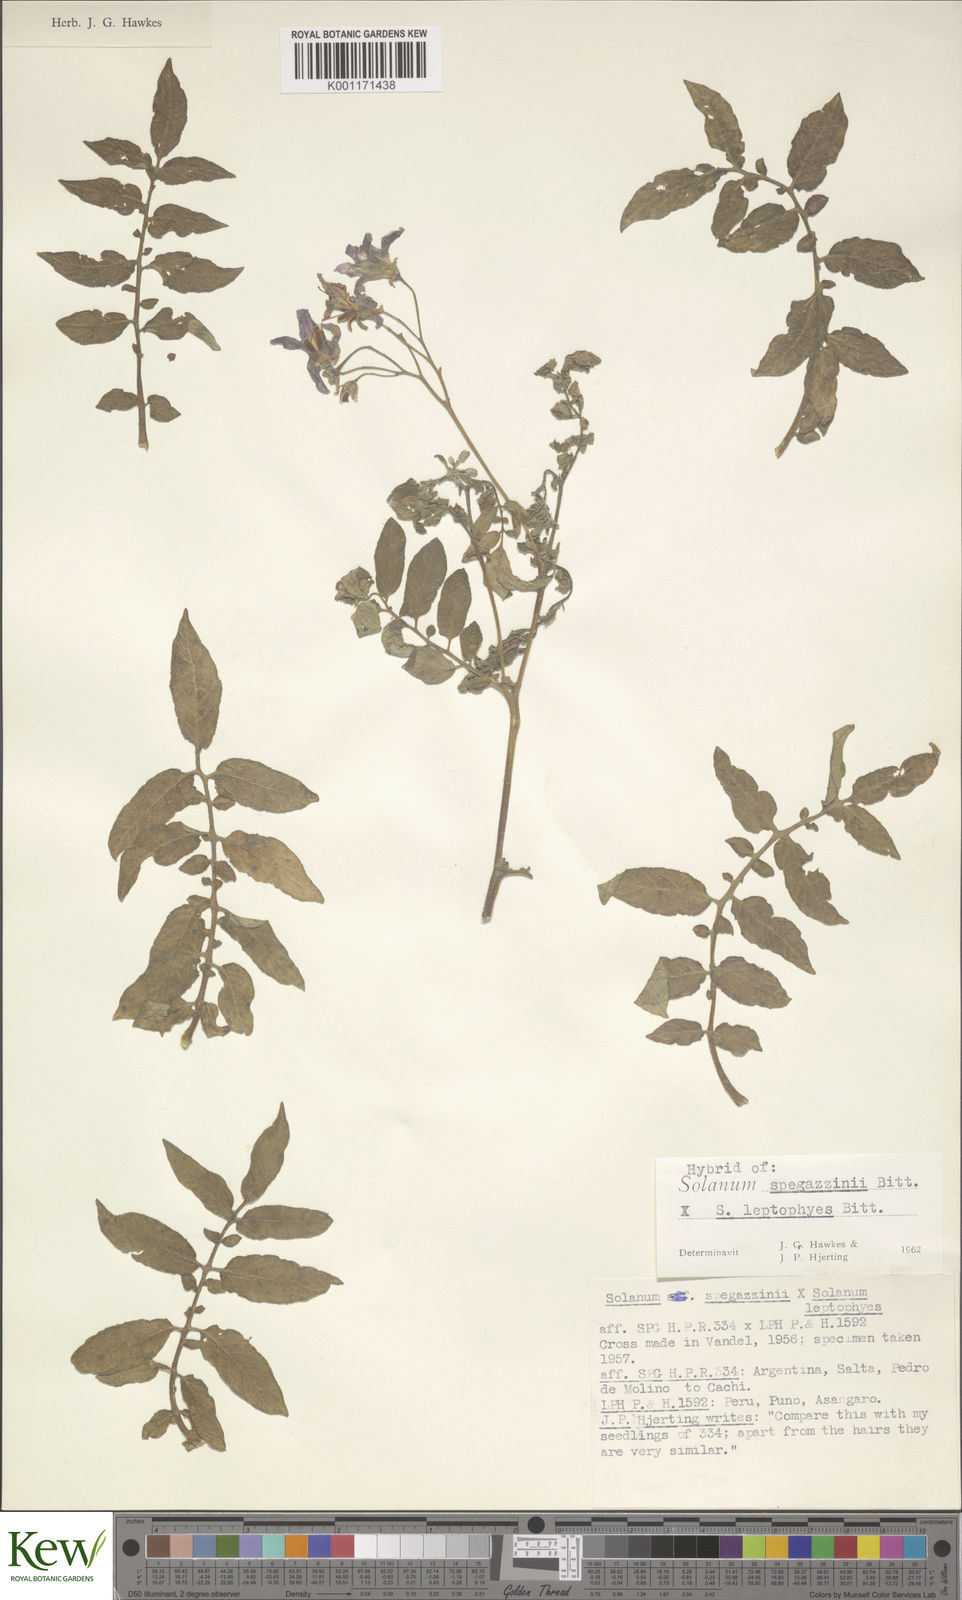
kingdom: Plantae
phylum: Tracheophyta
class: Magnoliopsida
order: Solanales
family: Solanaceae
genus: Solanum
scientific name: Solanum brevicaule
